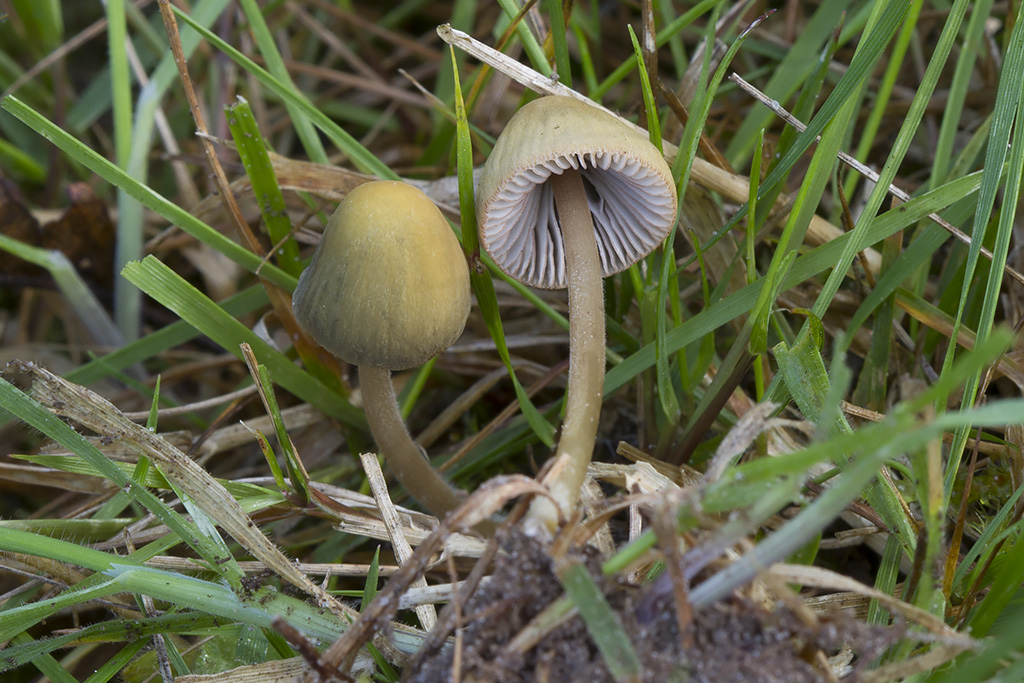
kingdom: Fungi
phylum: Basidiomycota
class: Agaricomycetes
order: Agaricales
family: Mycenaceae
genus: Mycena
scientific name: Mycena olivaceomarginata
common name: brunægget huesvamp
